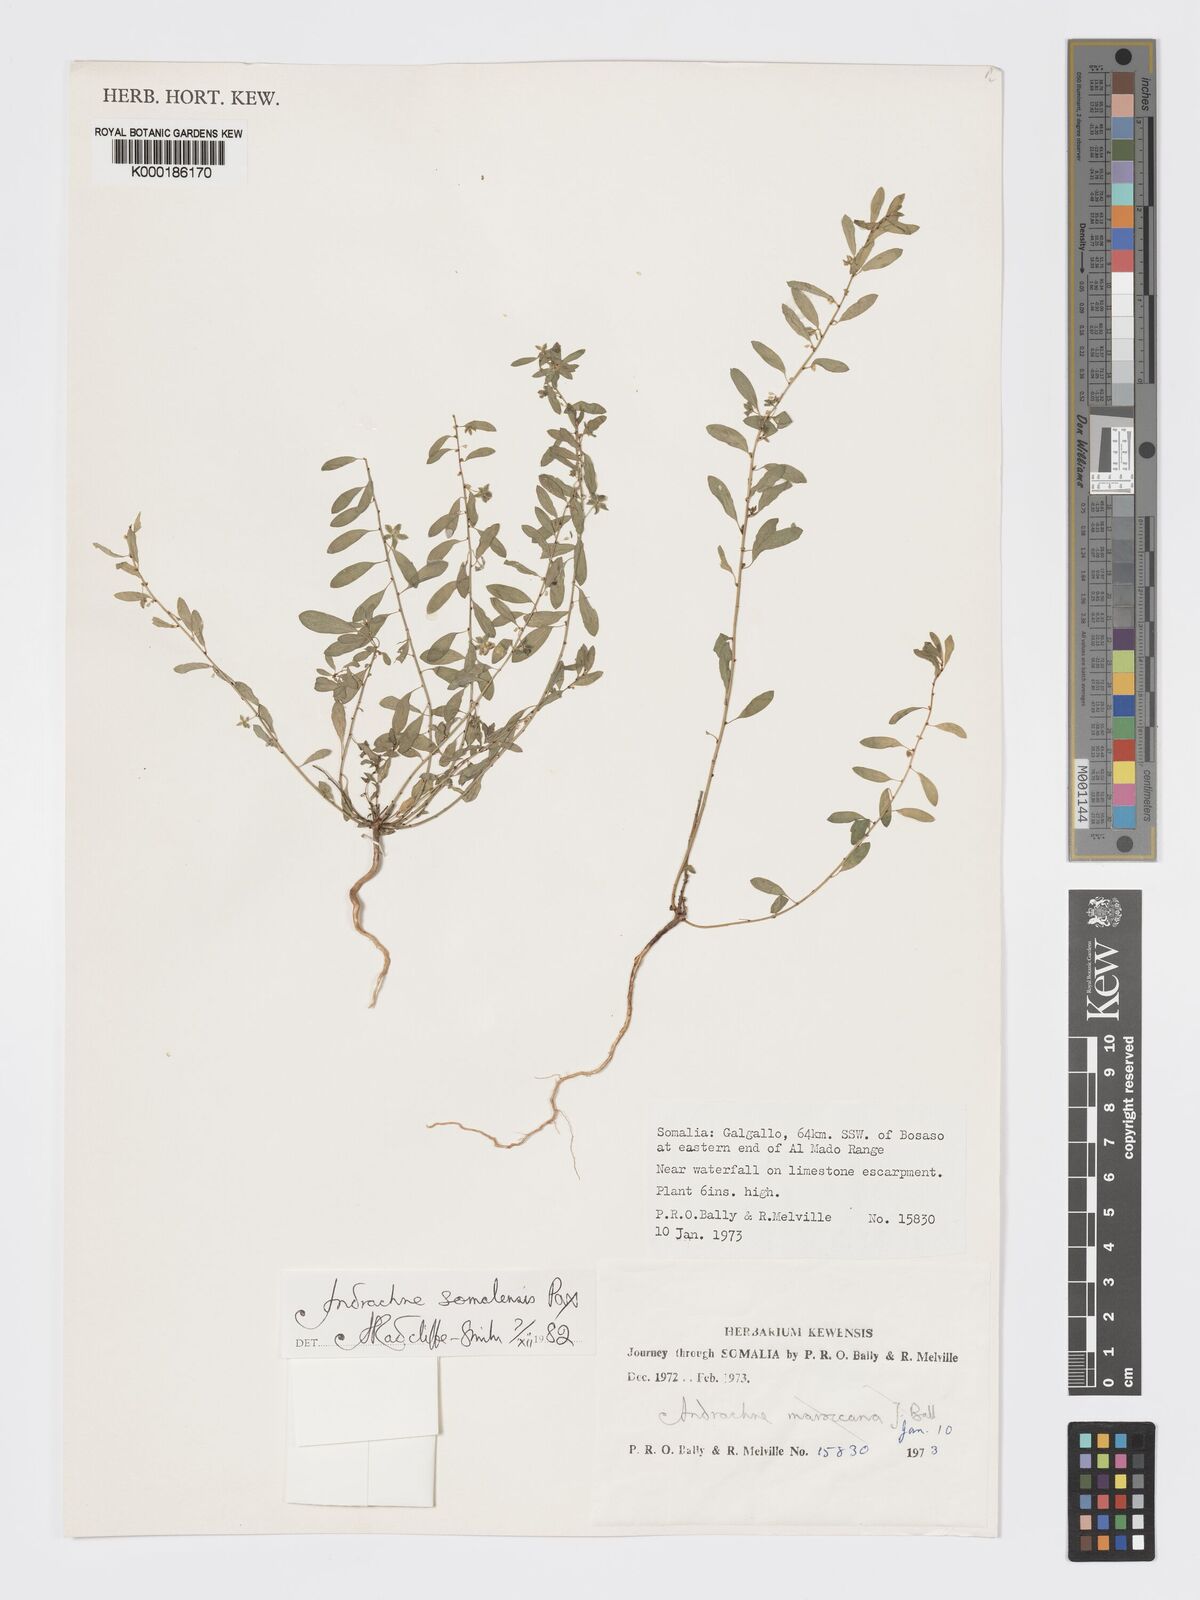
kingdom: Plantae
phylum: Tracheophyta
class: Magnoliopsida
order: Malpighiales
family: Phyllanthaceae
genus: Andrachne
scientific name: Andrachne schweinfurthii
